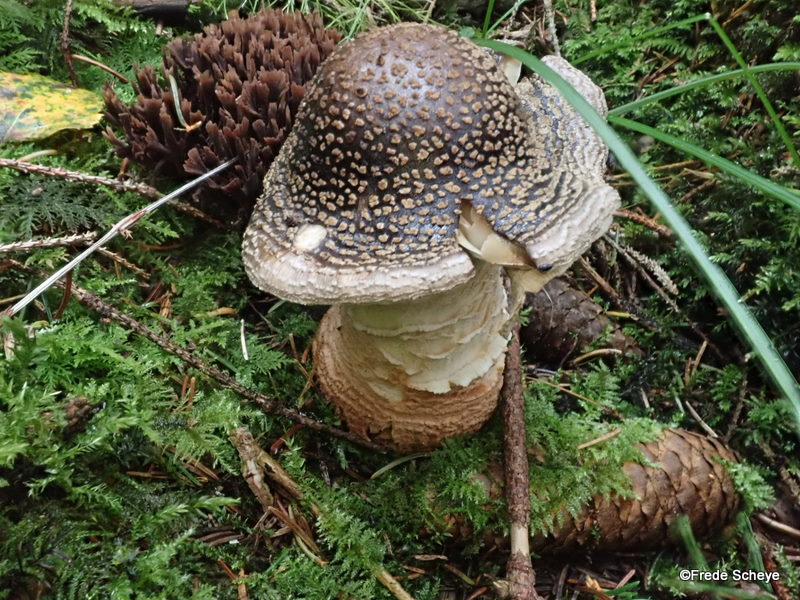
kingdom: Fungi
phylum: Basidiomycota
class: Agaricomycetes
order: Agaricales
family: Amanitaceae
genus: Amanita
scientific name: Amanita
